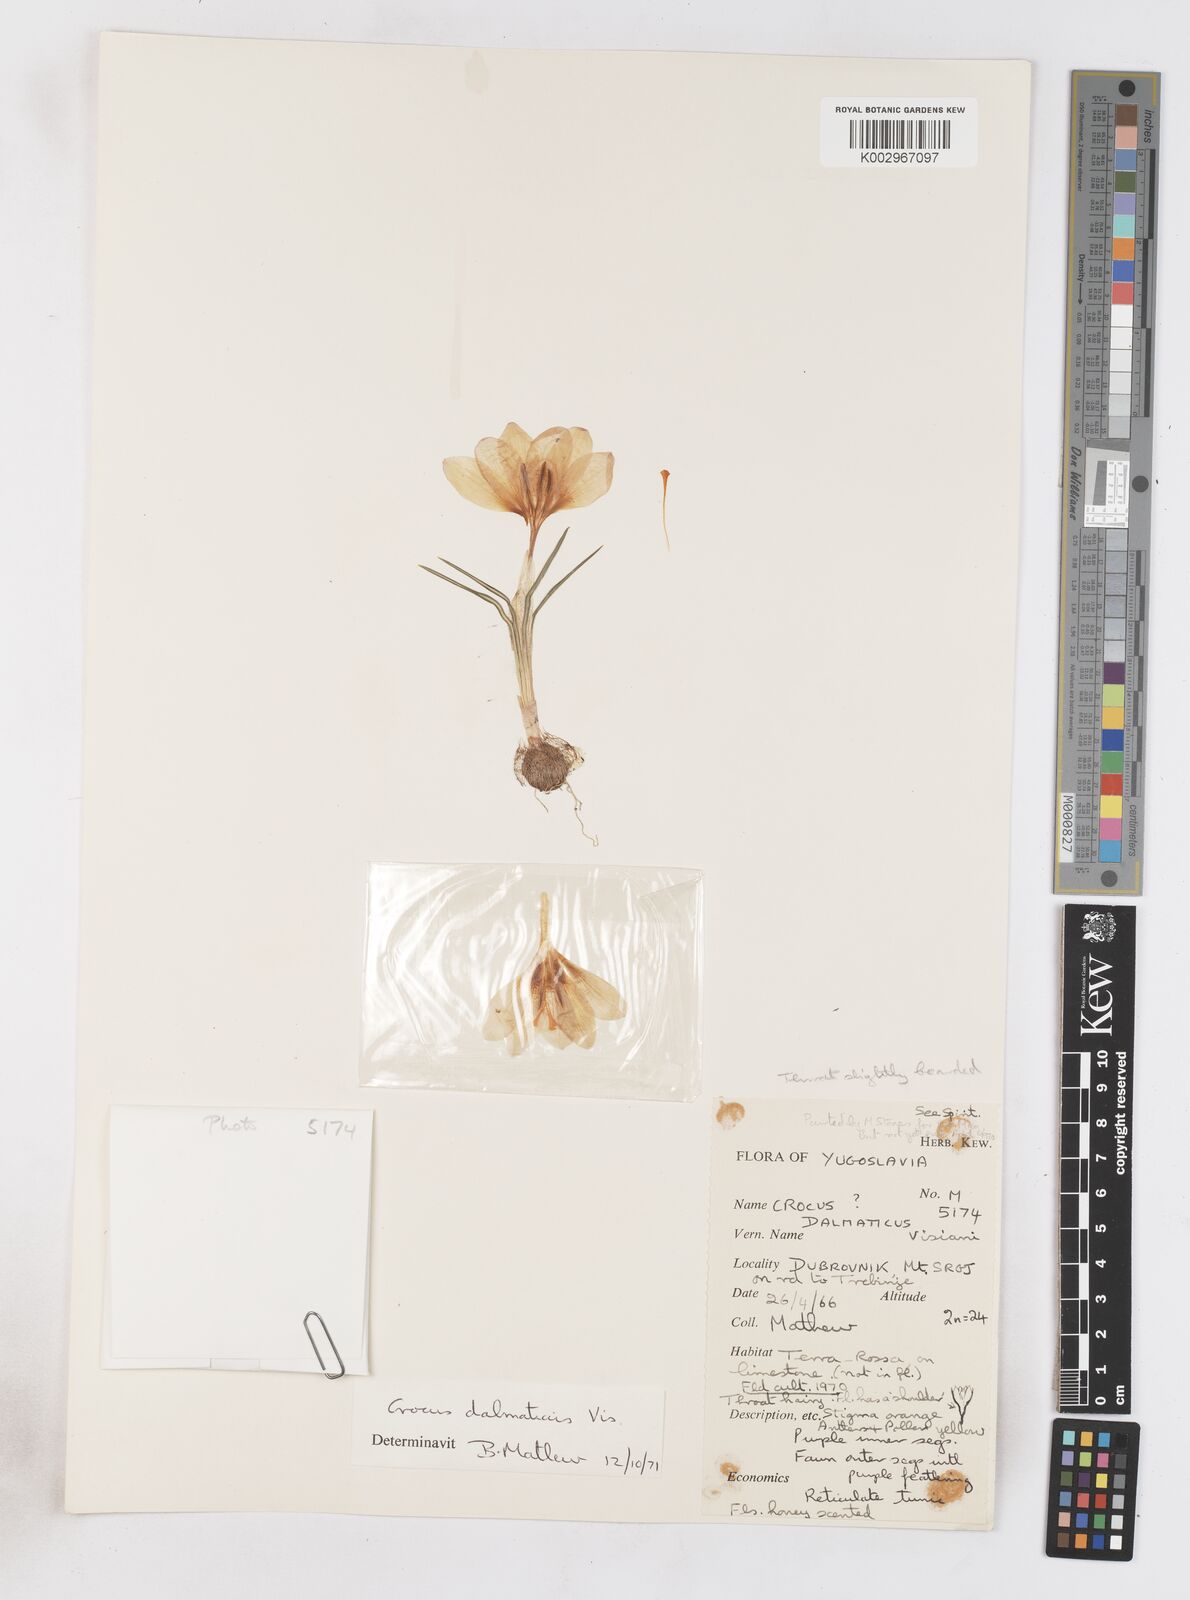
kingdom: Plantae
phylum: Tracheophyta
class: Liliopsida
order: Asparagales
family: Iridaceae
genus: Crocus
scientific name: Crocus dalmaticus
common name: Dalmatian saffron
